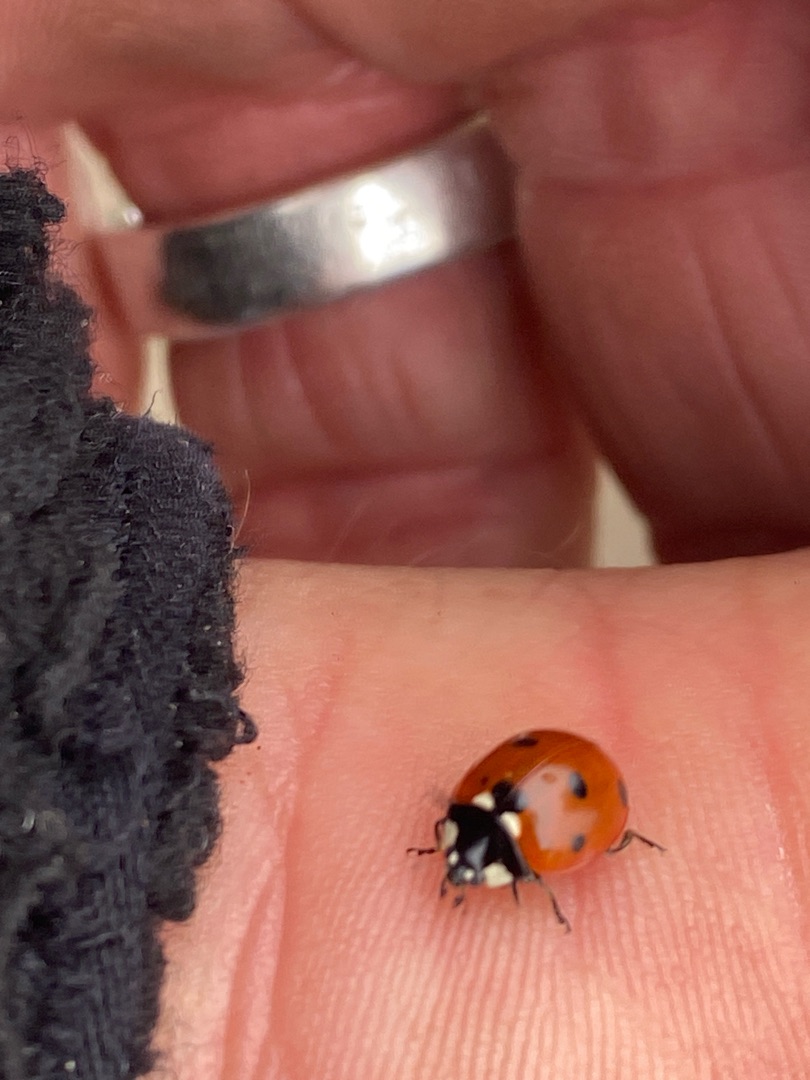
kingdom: Animalia
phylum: Arthropoda
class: Insecta
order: Coleoptera
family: Coccinellidae
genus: Coccinella
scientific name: Coccinella septempunctata
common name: Syvplettet mariehøne
